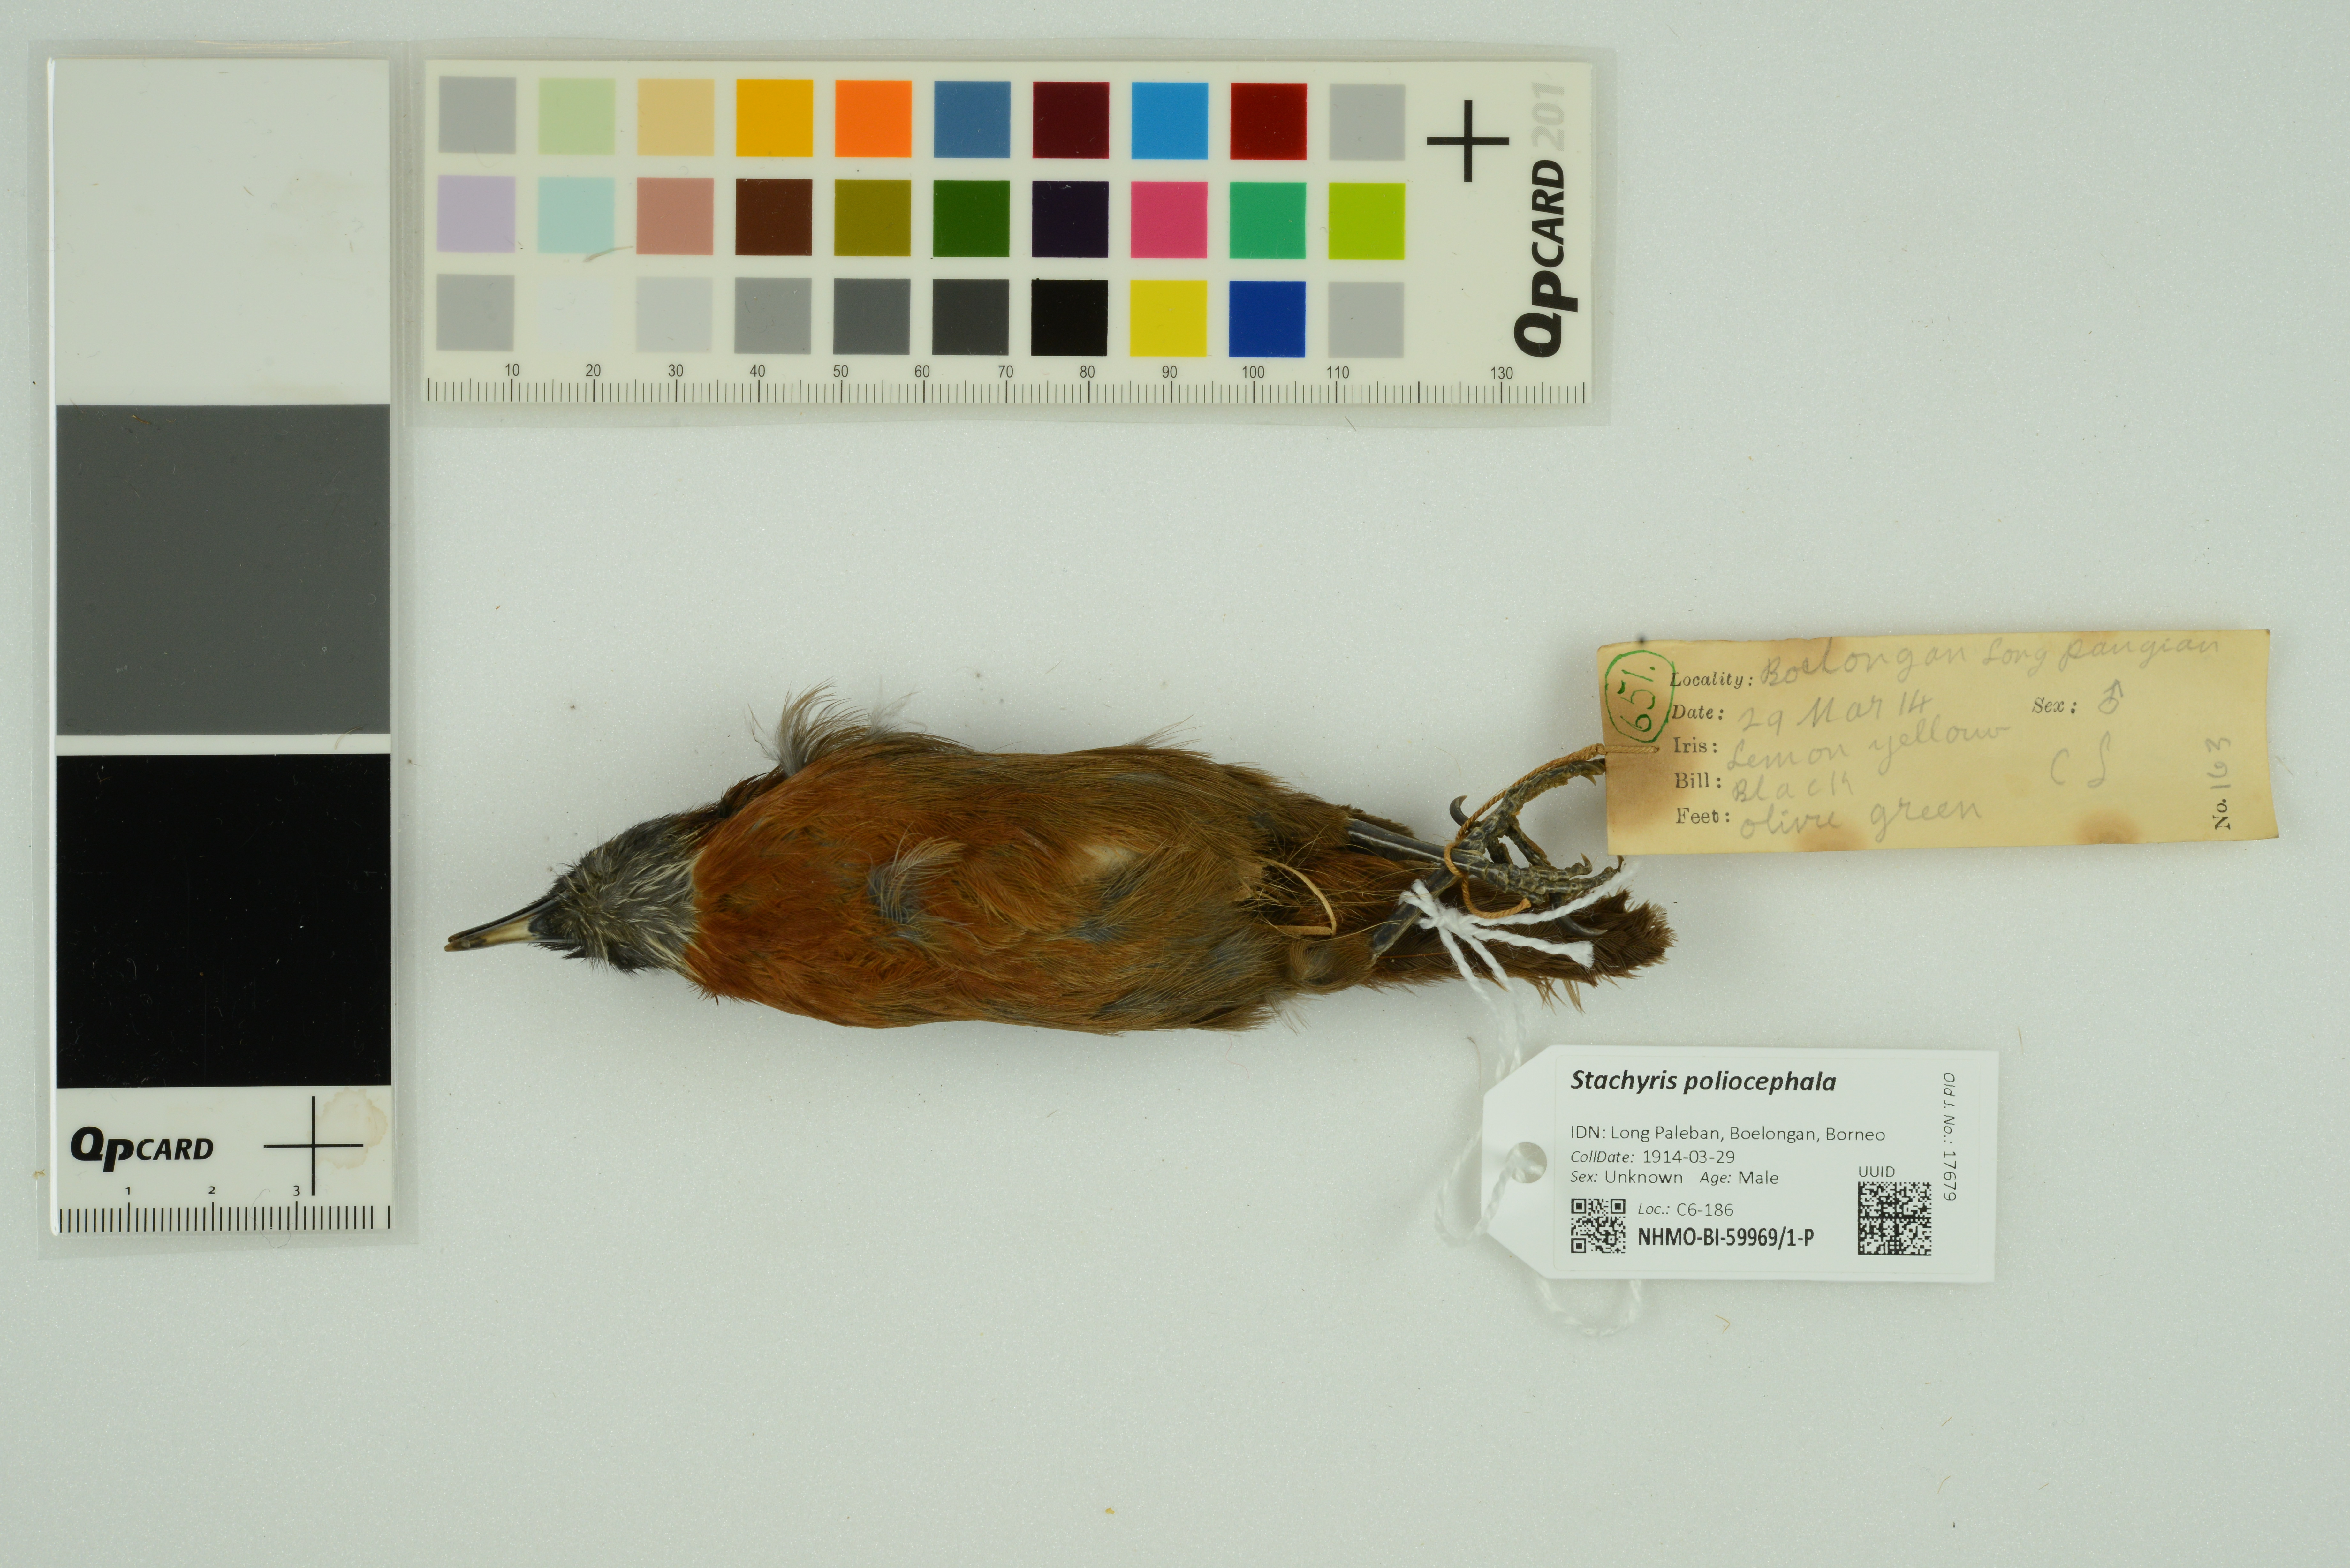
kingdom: Animalia
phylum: Chordata
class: Aves
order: Passeriformes
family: Timaliidae
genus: Stachyris
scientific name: Stachyris poliocephala
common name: Grey-headed babbler
